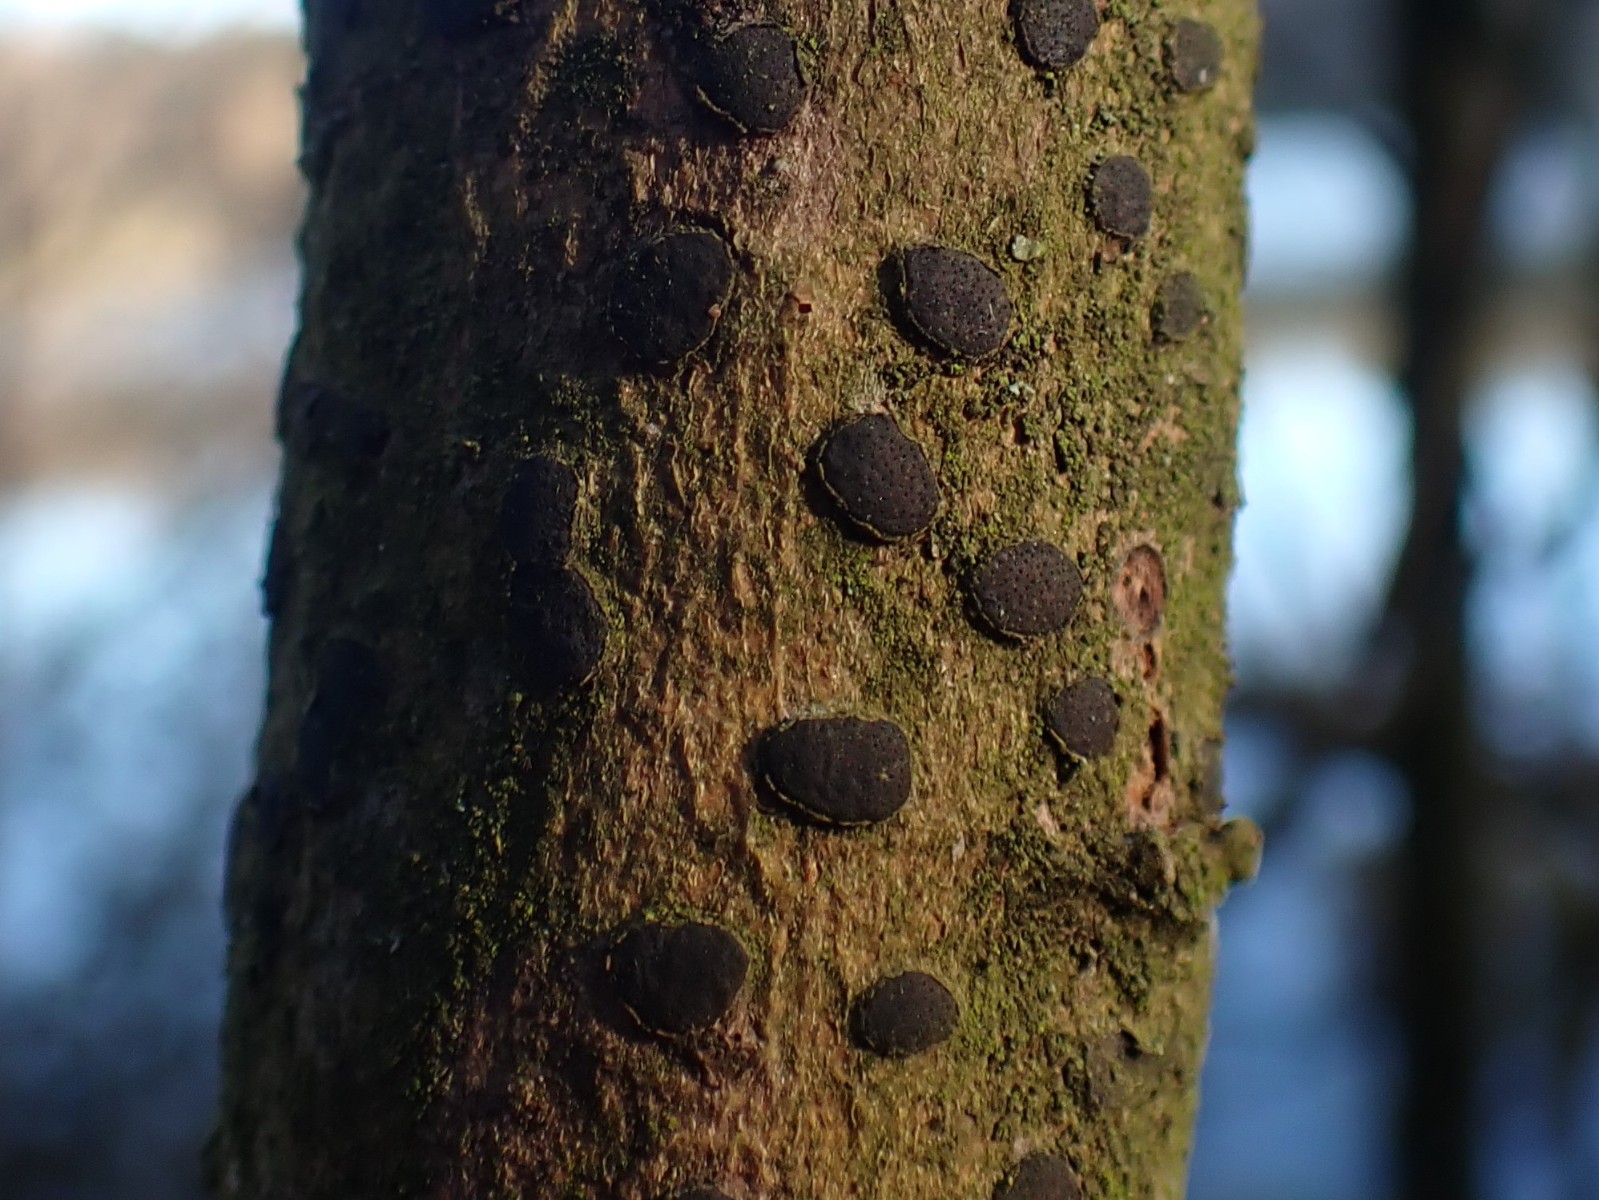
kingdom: Fungi
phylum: Ascomycota
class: Sordariomycetes
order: Xylariales
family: Diatrypaceae
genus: Diatrype
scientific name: Diatrype bullata
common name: pile-kulskorpe
